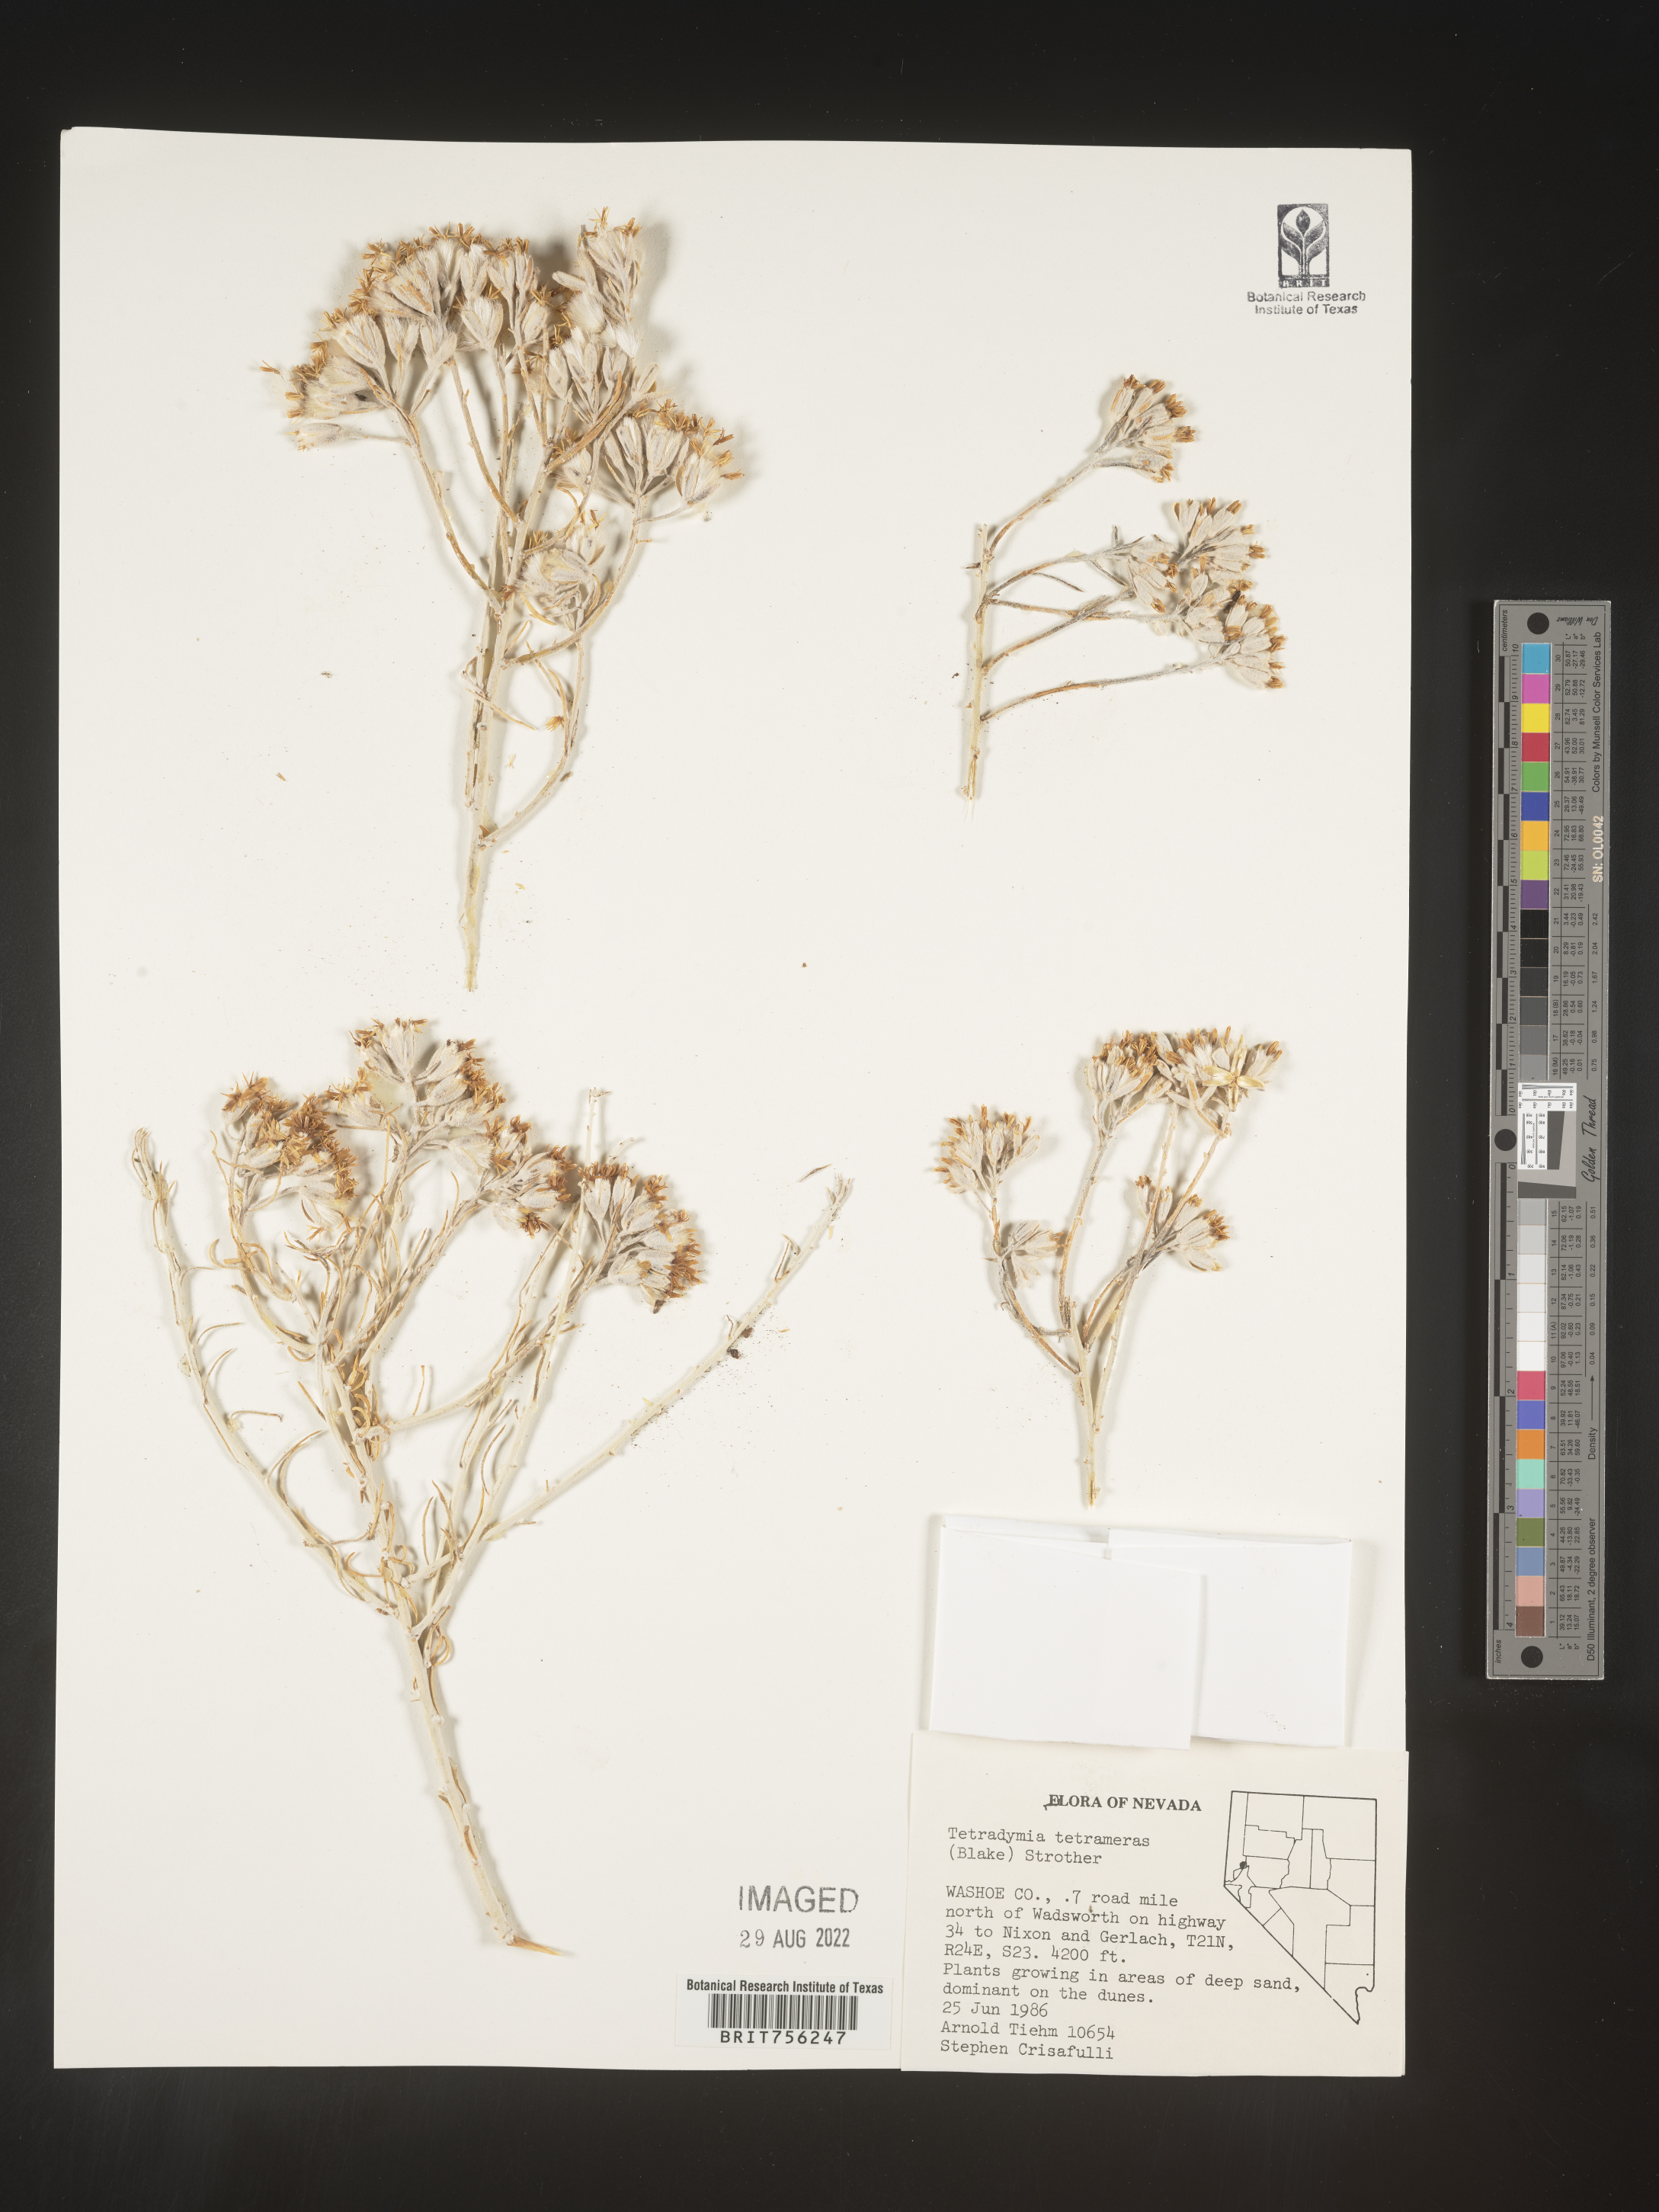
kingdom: Plantae
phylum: Tracheophyta
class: Magnoliopsida
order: Asterales
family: Asteraceae
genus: Tetradymia
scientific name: Tetradymia
